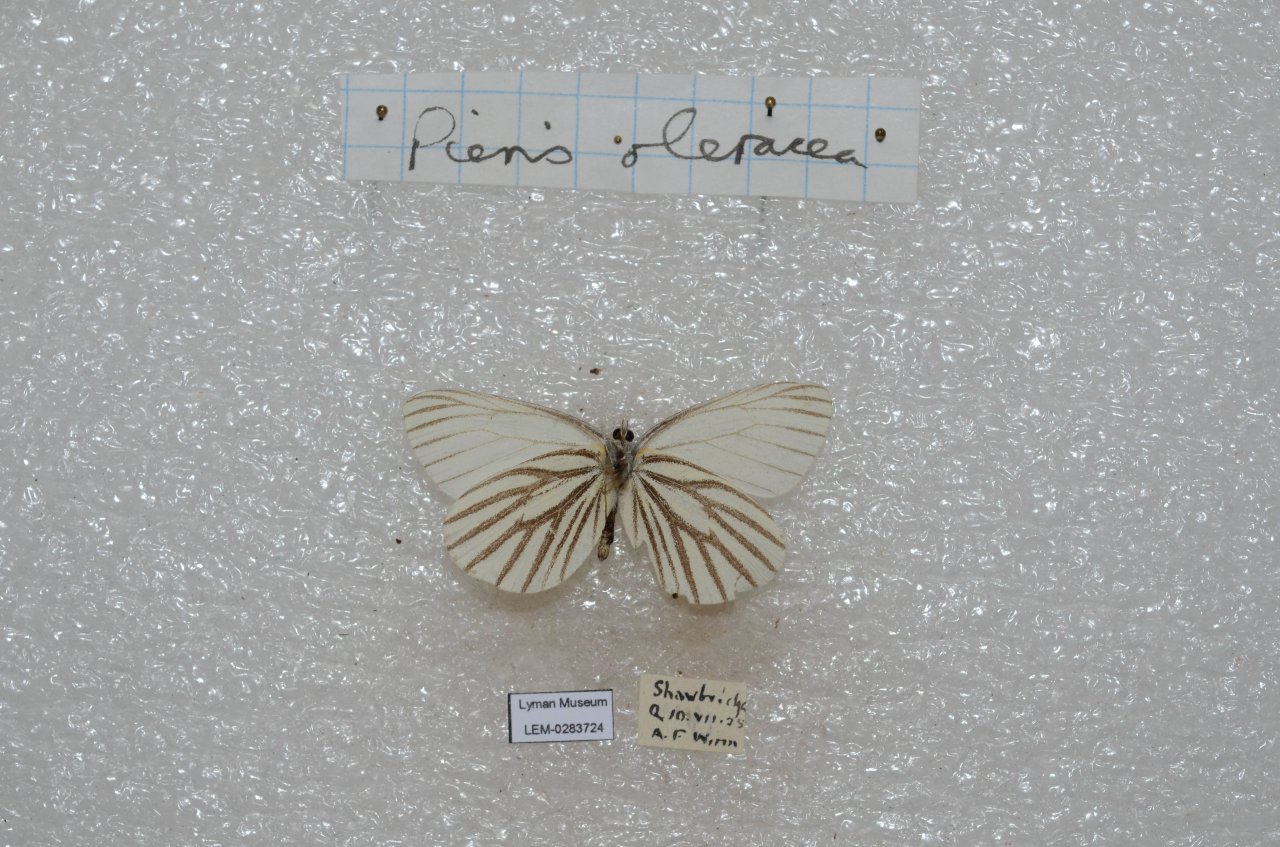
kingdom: Animalia
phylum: Arthropoda
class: Insecta
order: Lepidoptera
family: Pieridae
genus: Pieris
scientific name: Pieris oleracea
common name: Mustard White
